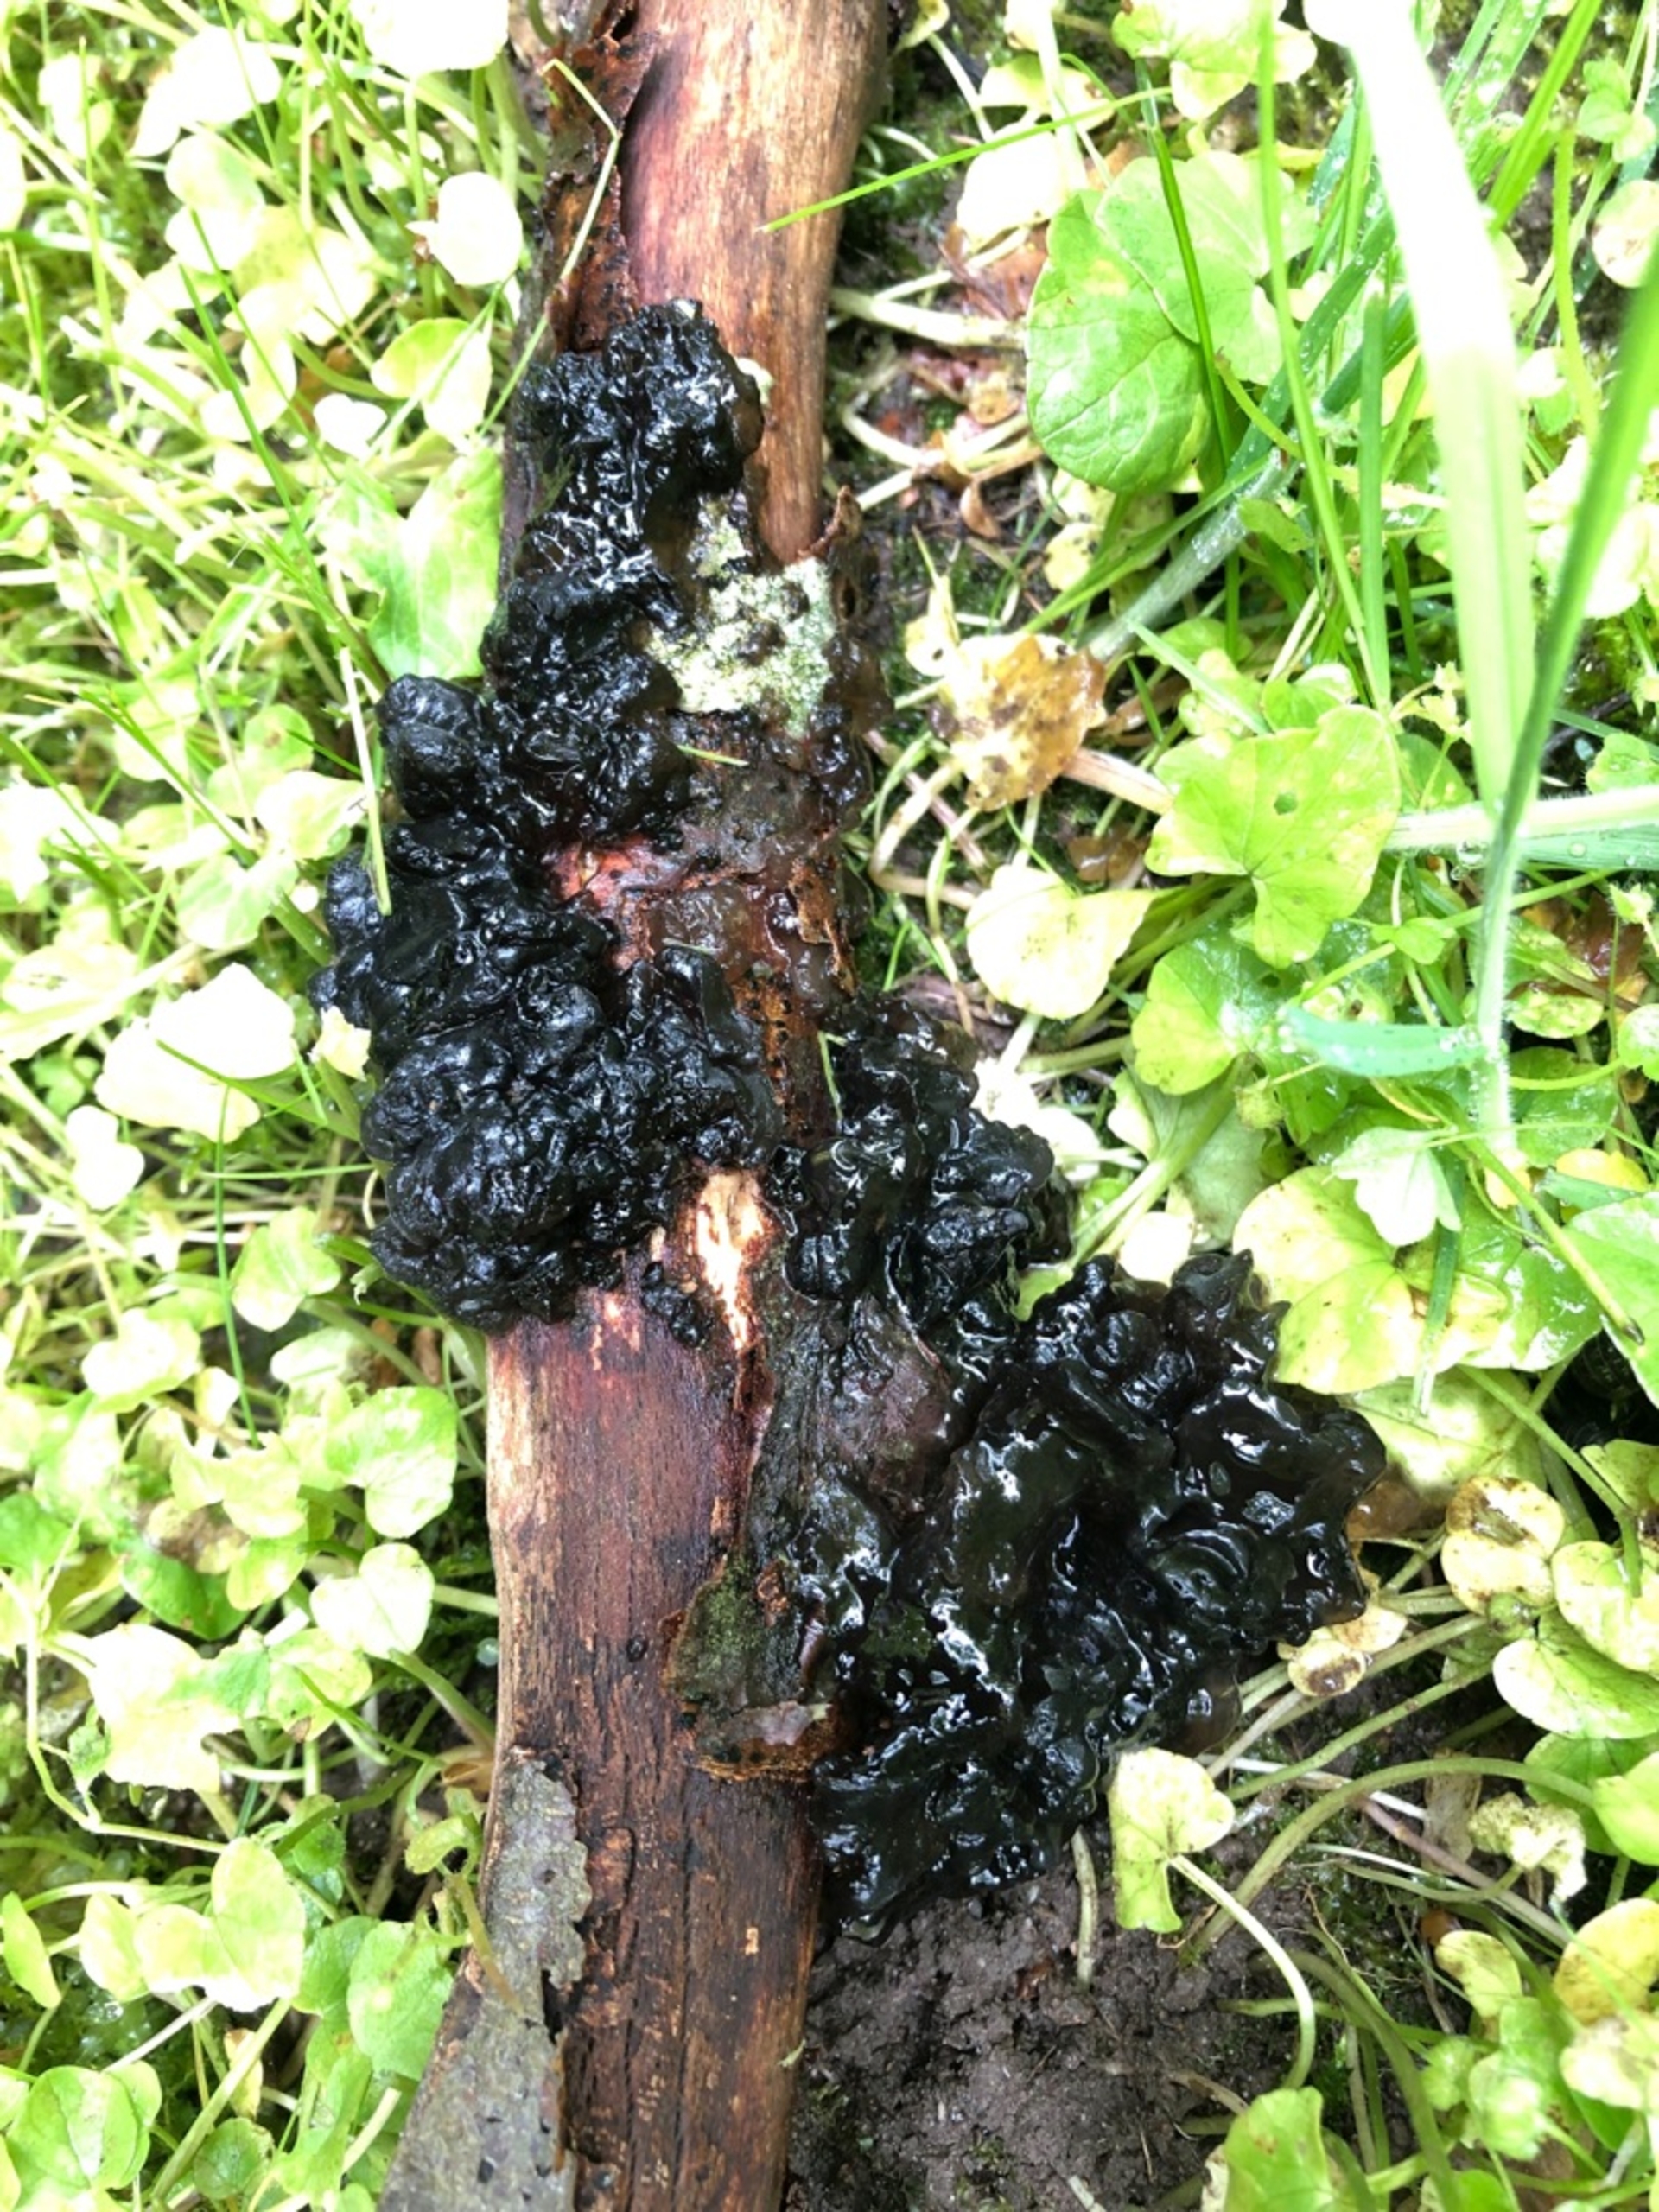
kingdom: Fungi
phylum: Basidiomycota
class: Agaricomycetes
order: Auriculariales
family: Auriculariaceae
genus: Exidia
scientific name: Exidia nigricans
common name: Almindelig bævretop
